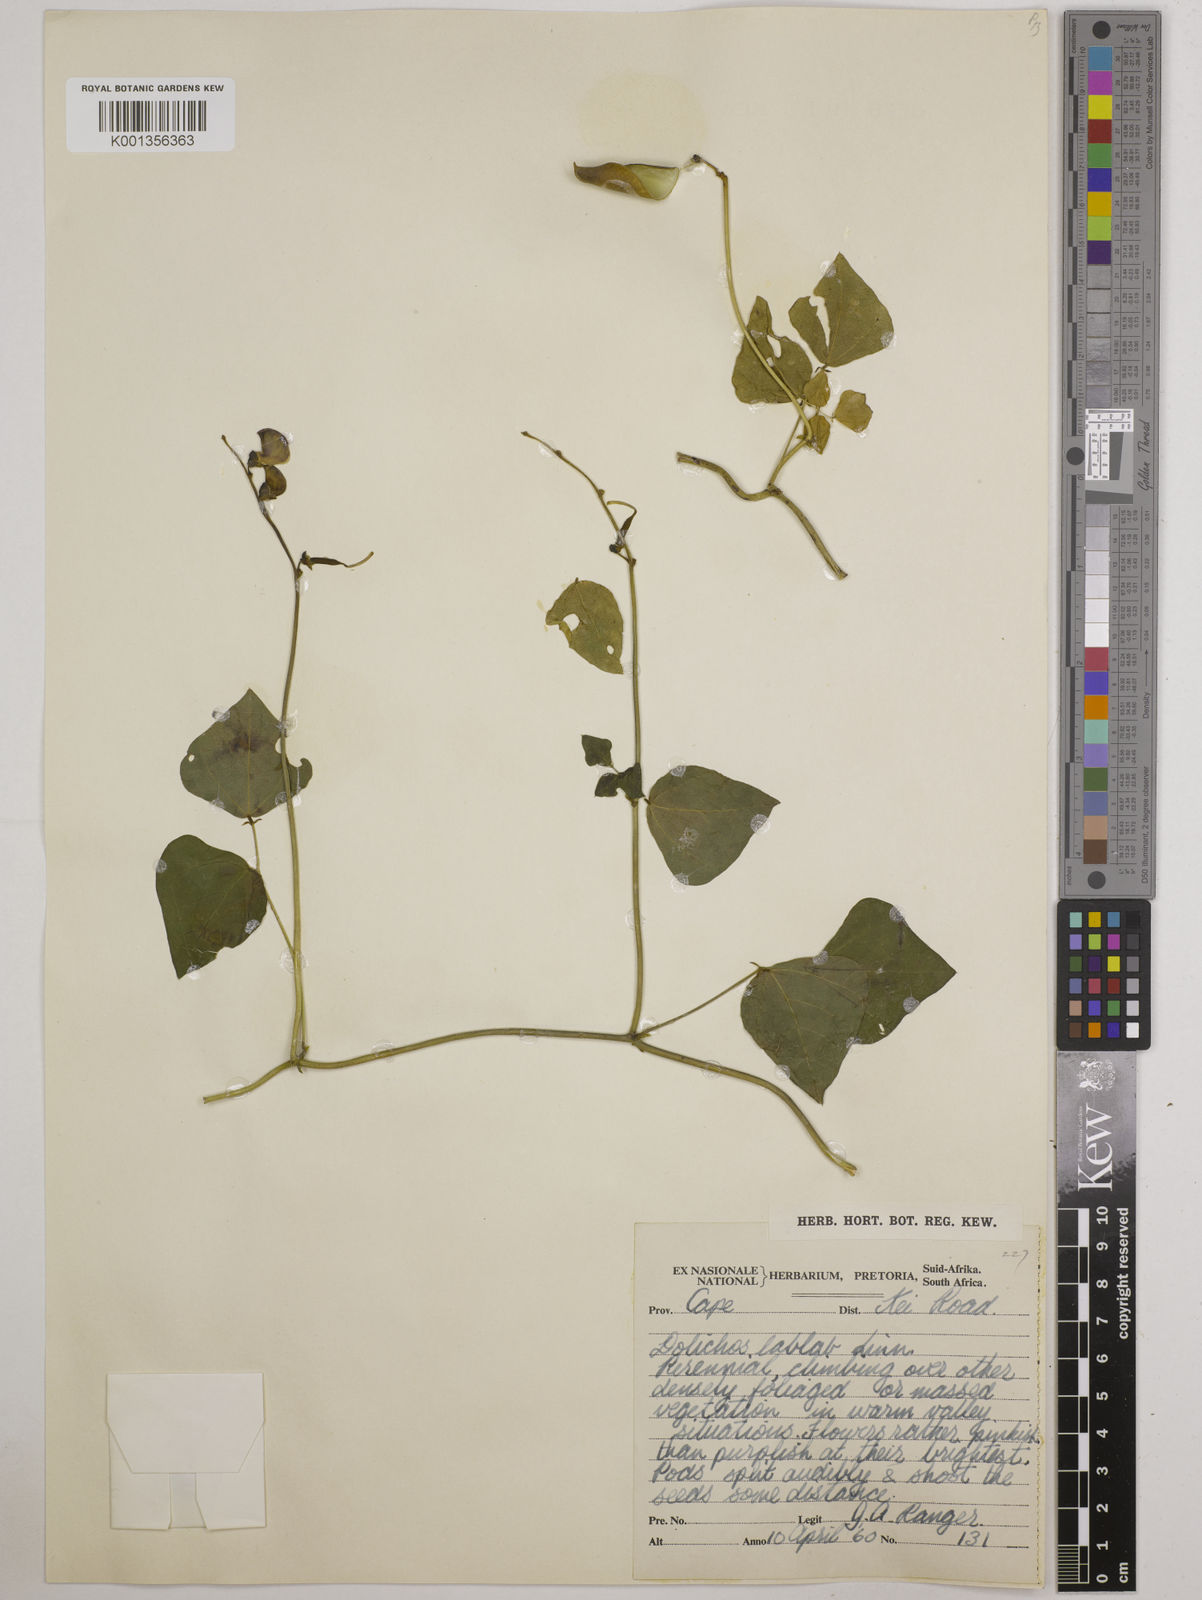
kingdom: Plantae
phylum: Tracheophyta
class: Magnoliopsida
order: Fabales
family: Fabaceae
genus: Lablab
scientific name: Lablab purpureus
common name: Lablab-bean
